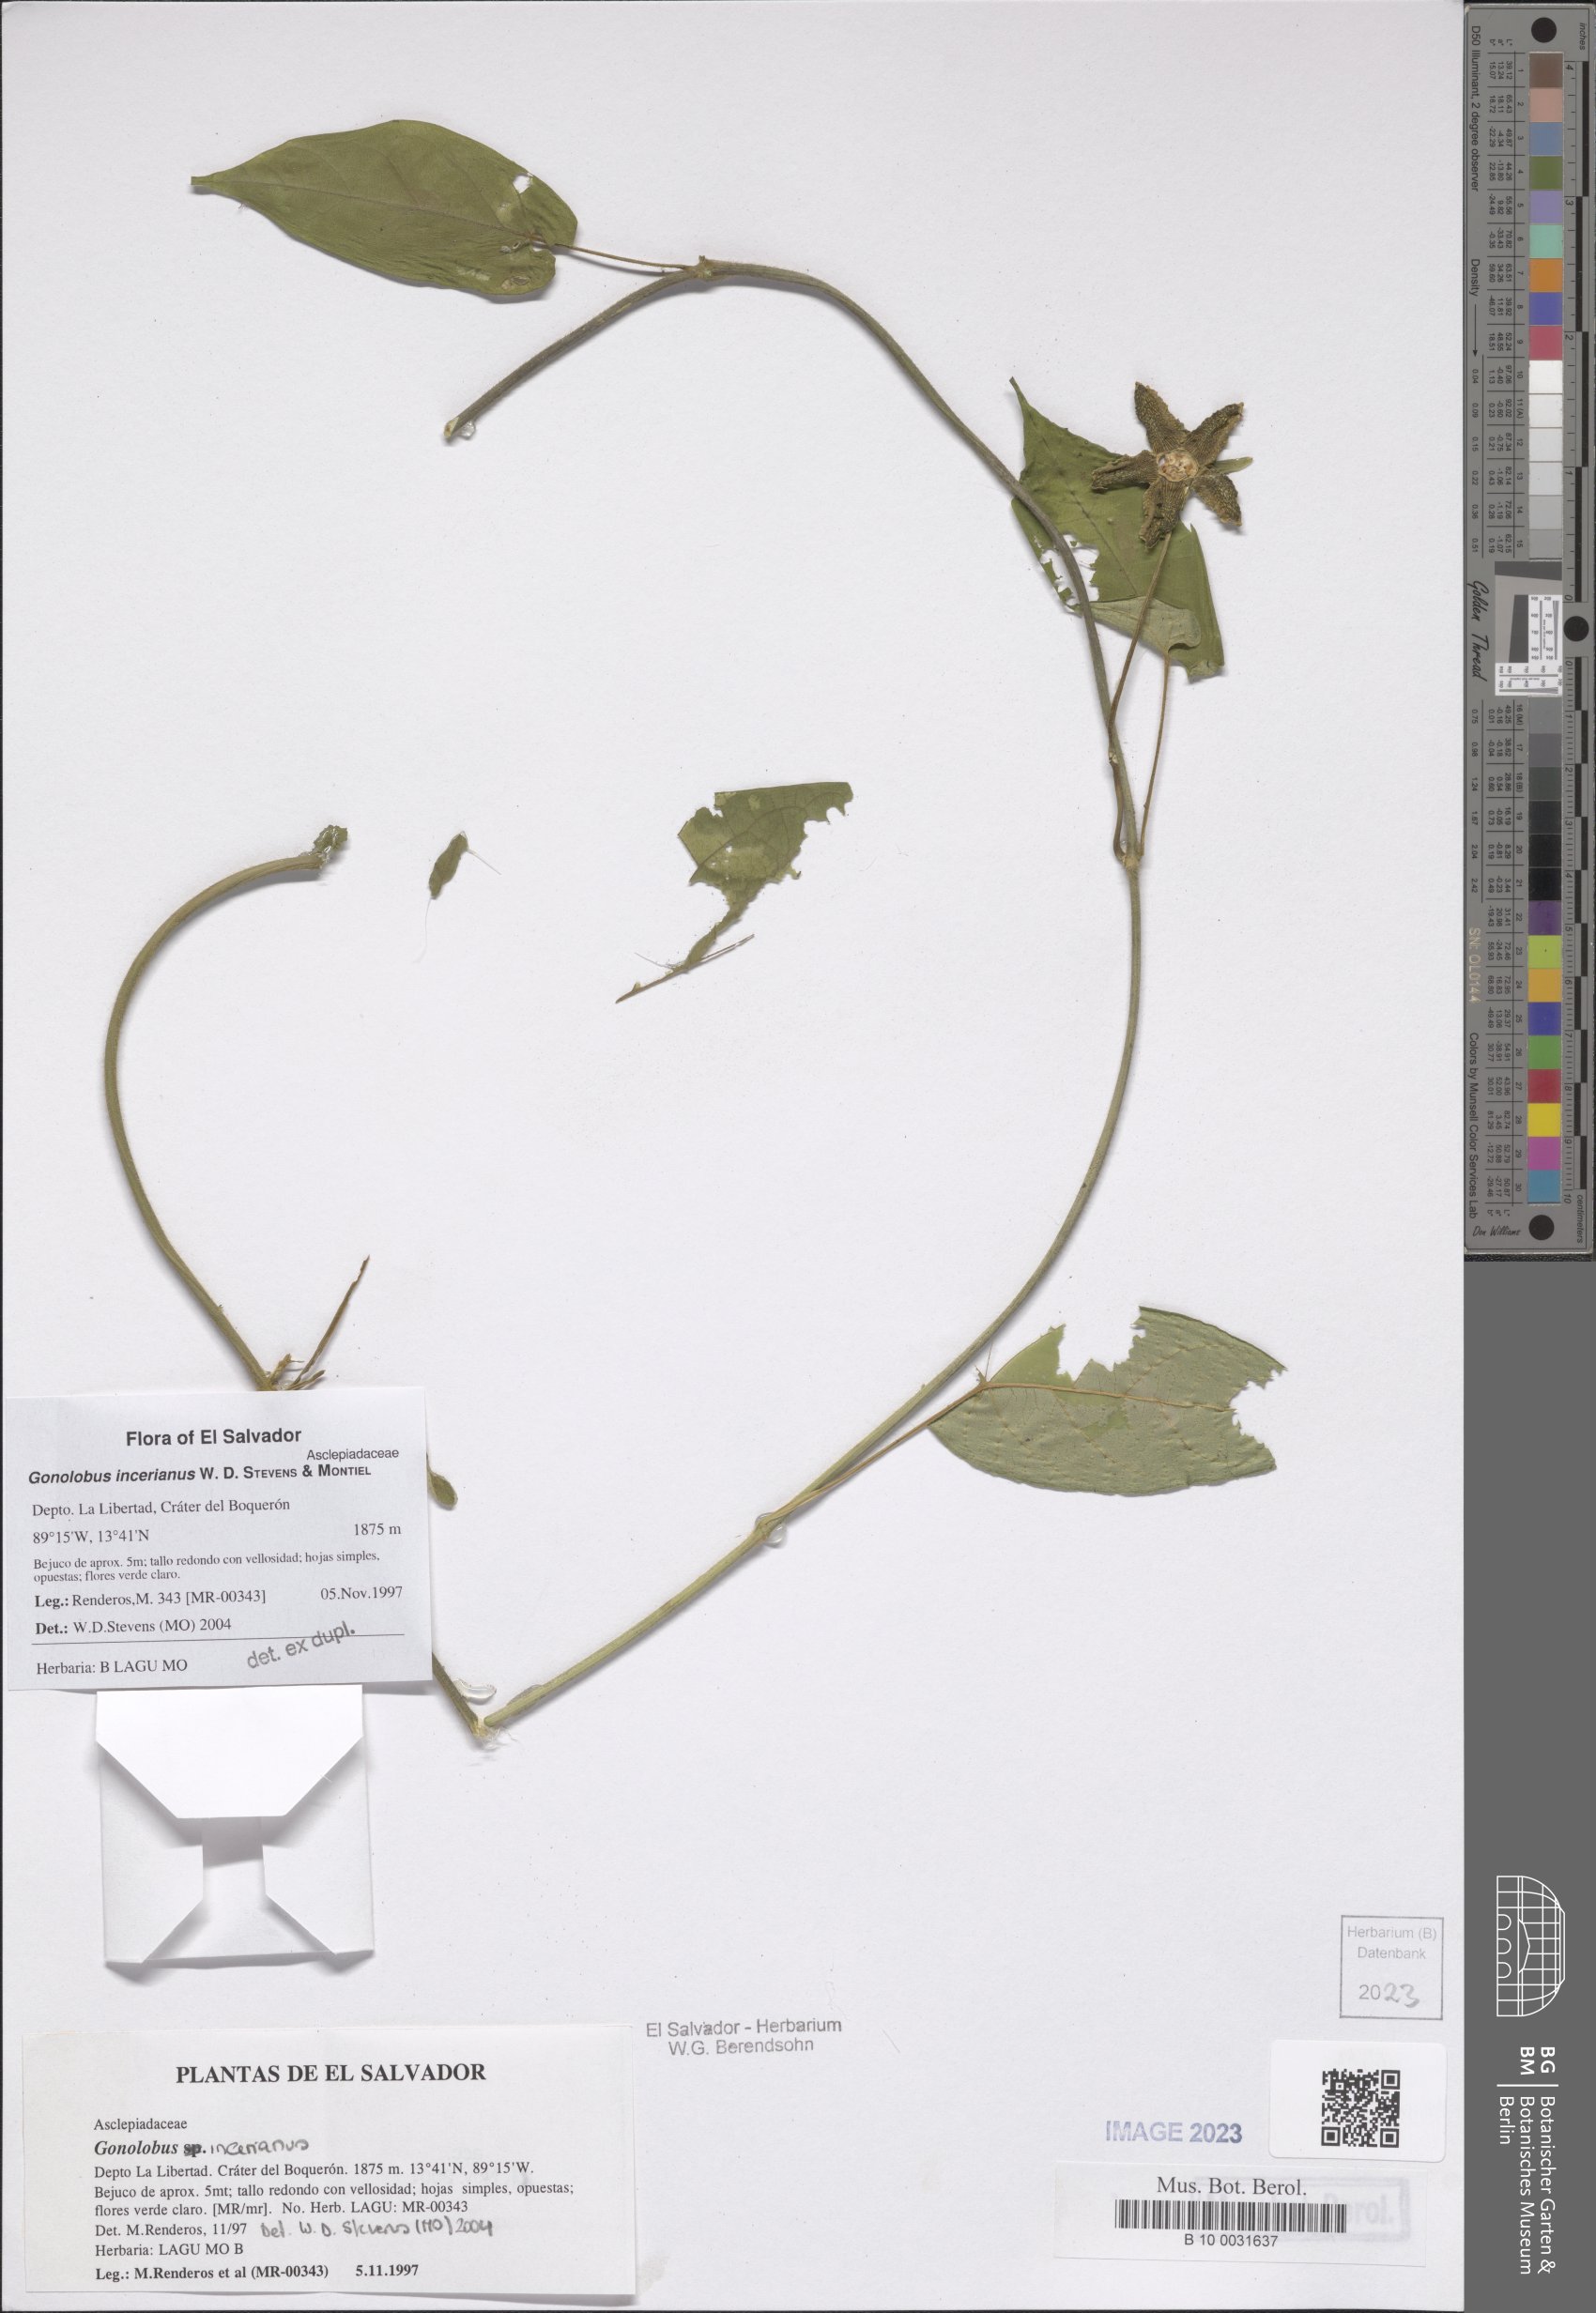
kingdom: Plantae
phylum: Tracheophyta
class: Magnoliopsida
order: Gentianales
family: Apocynaceae
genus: Gonolobus
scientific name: Gonolobus incerianus
